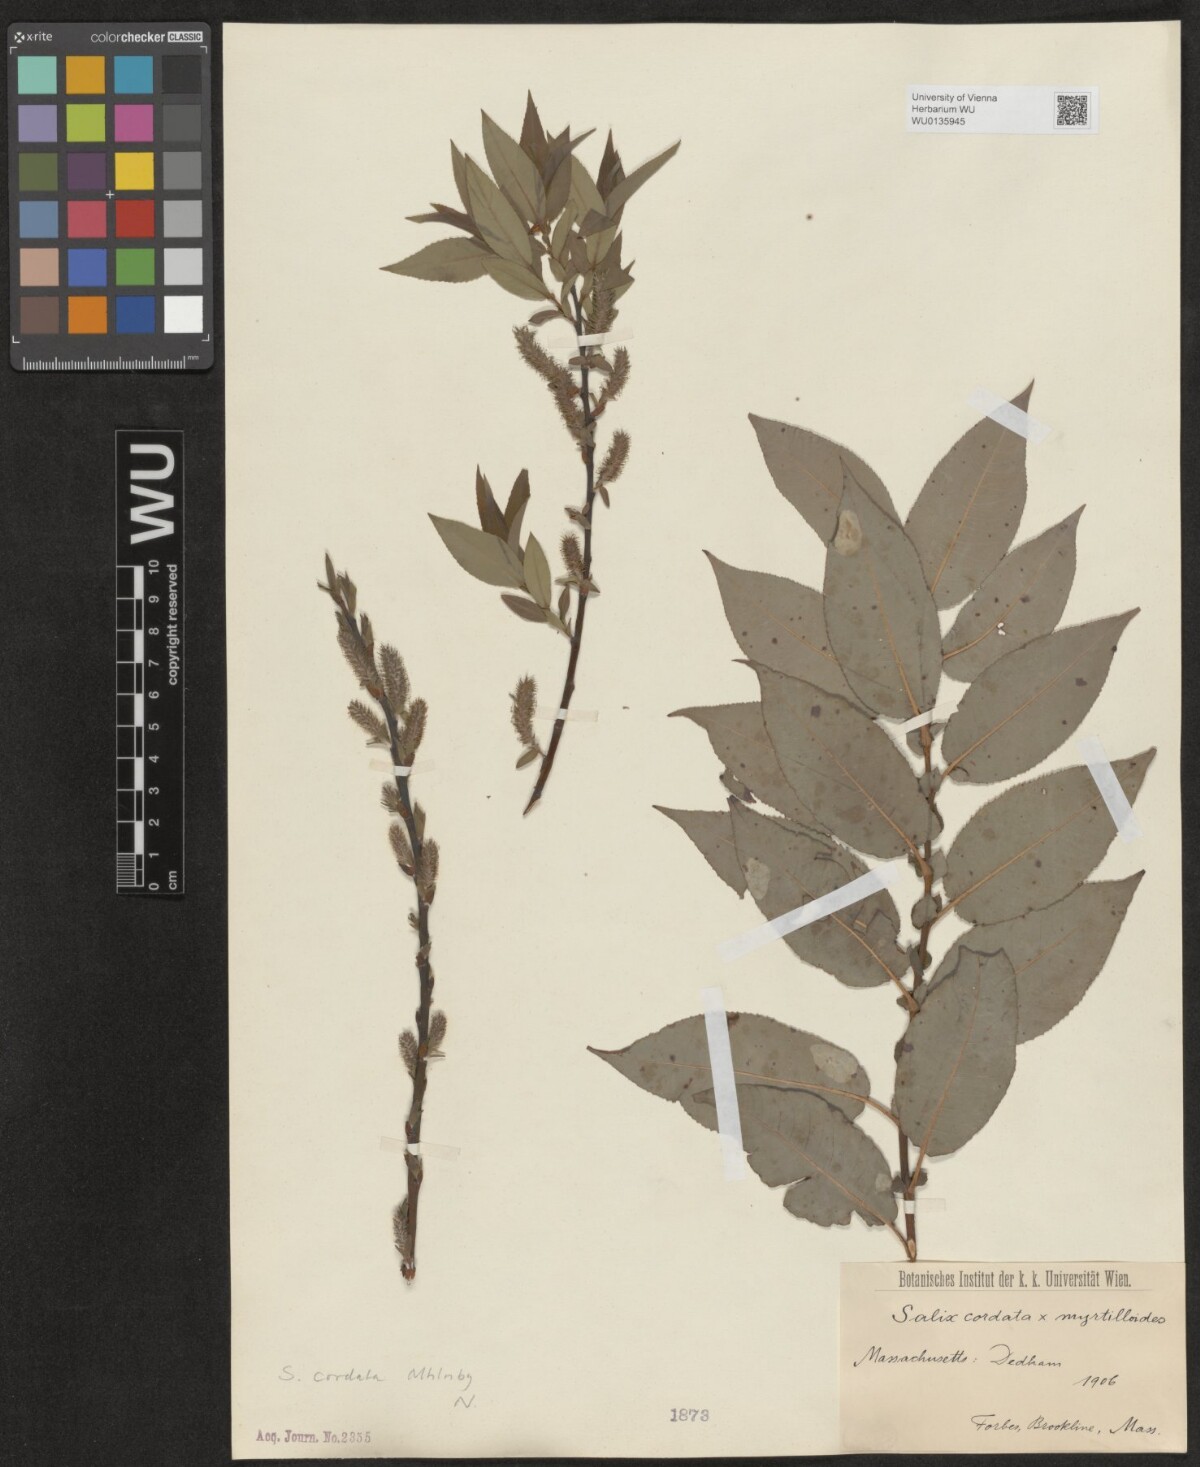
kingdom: Plantae
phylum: Tracheophyta
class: Magnoliopsida
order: Malpighiales
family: Salicaceae
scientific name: Salicaceae
